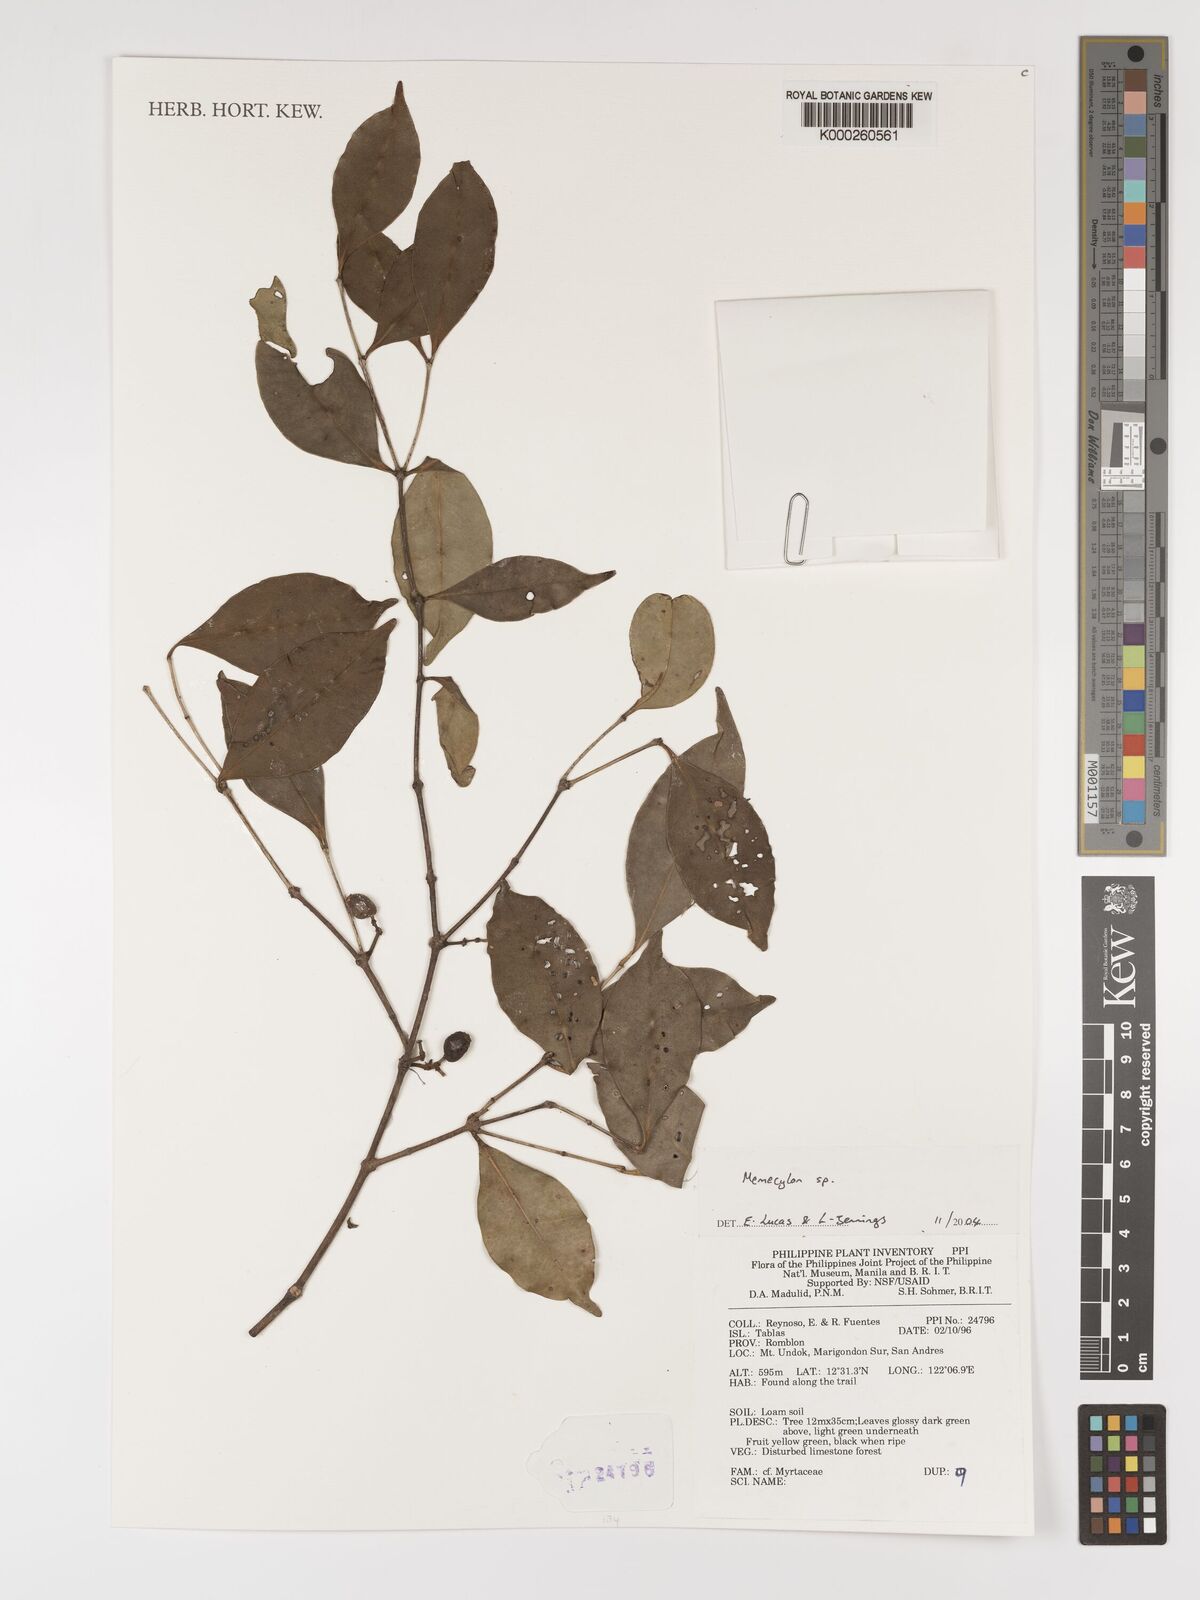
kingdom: Plantae
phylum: Tracheophyta
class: Magnoliopsida
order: Myrtales
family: Melastomataceae
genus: Medinilla
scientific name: Medinilla
